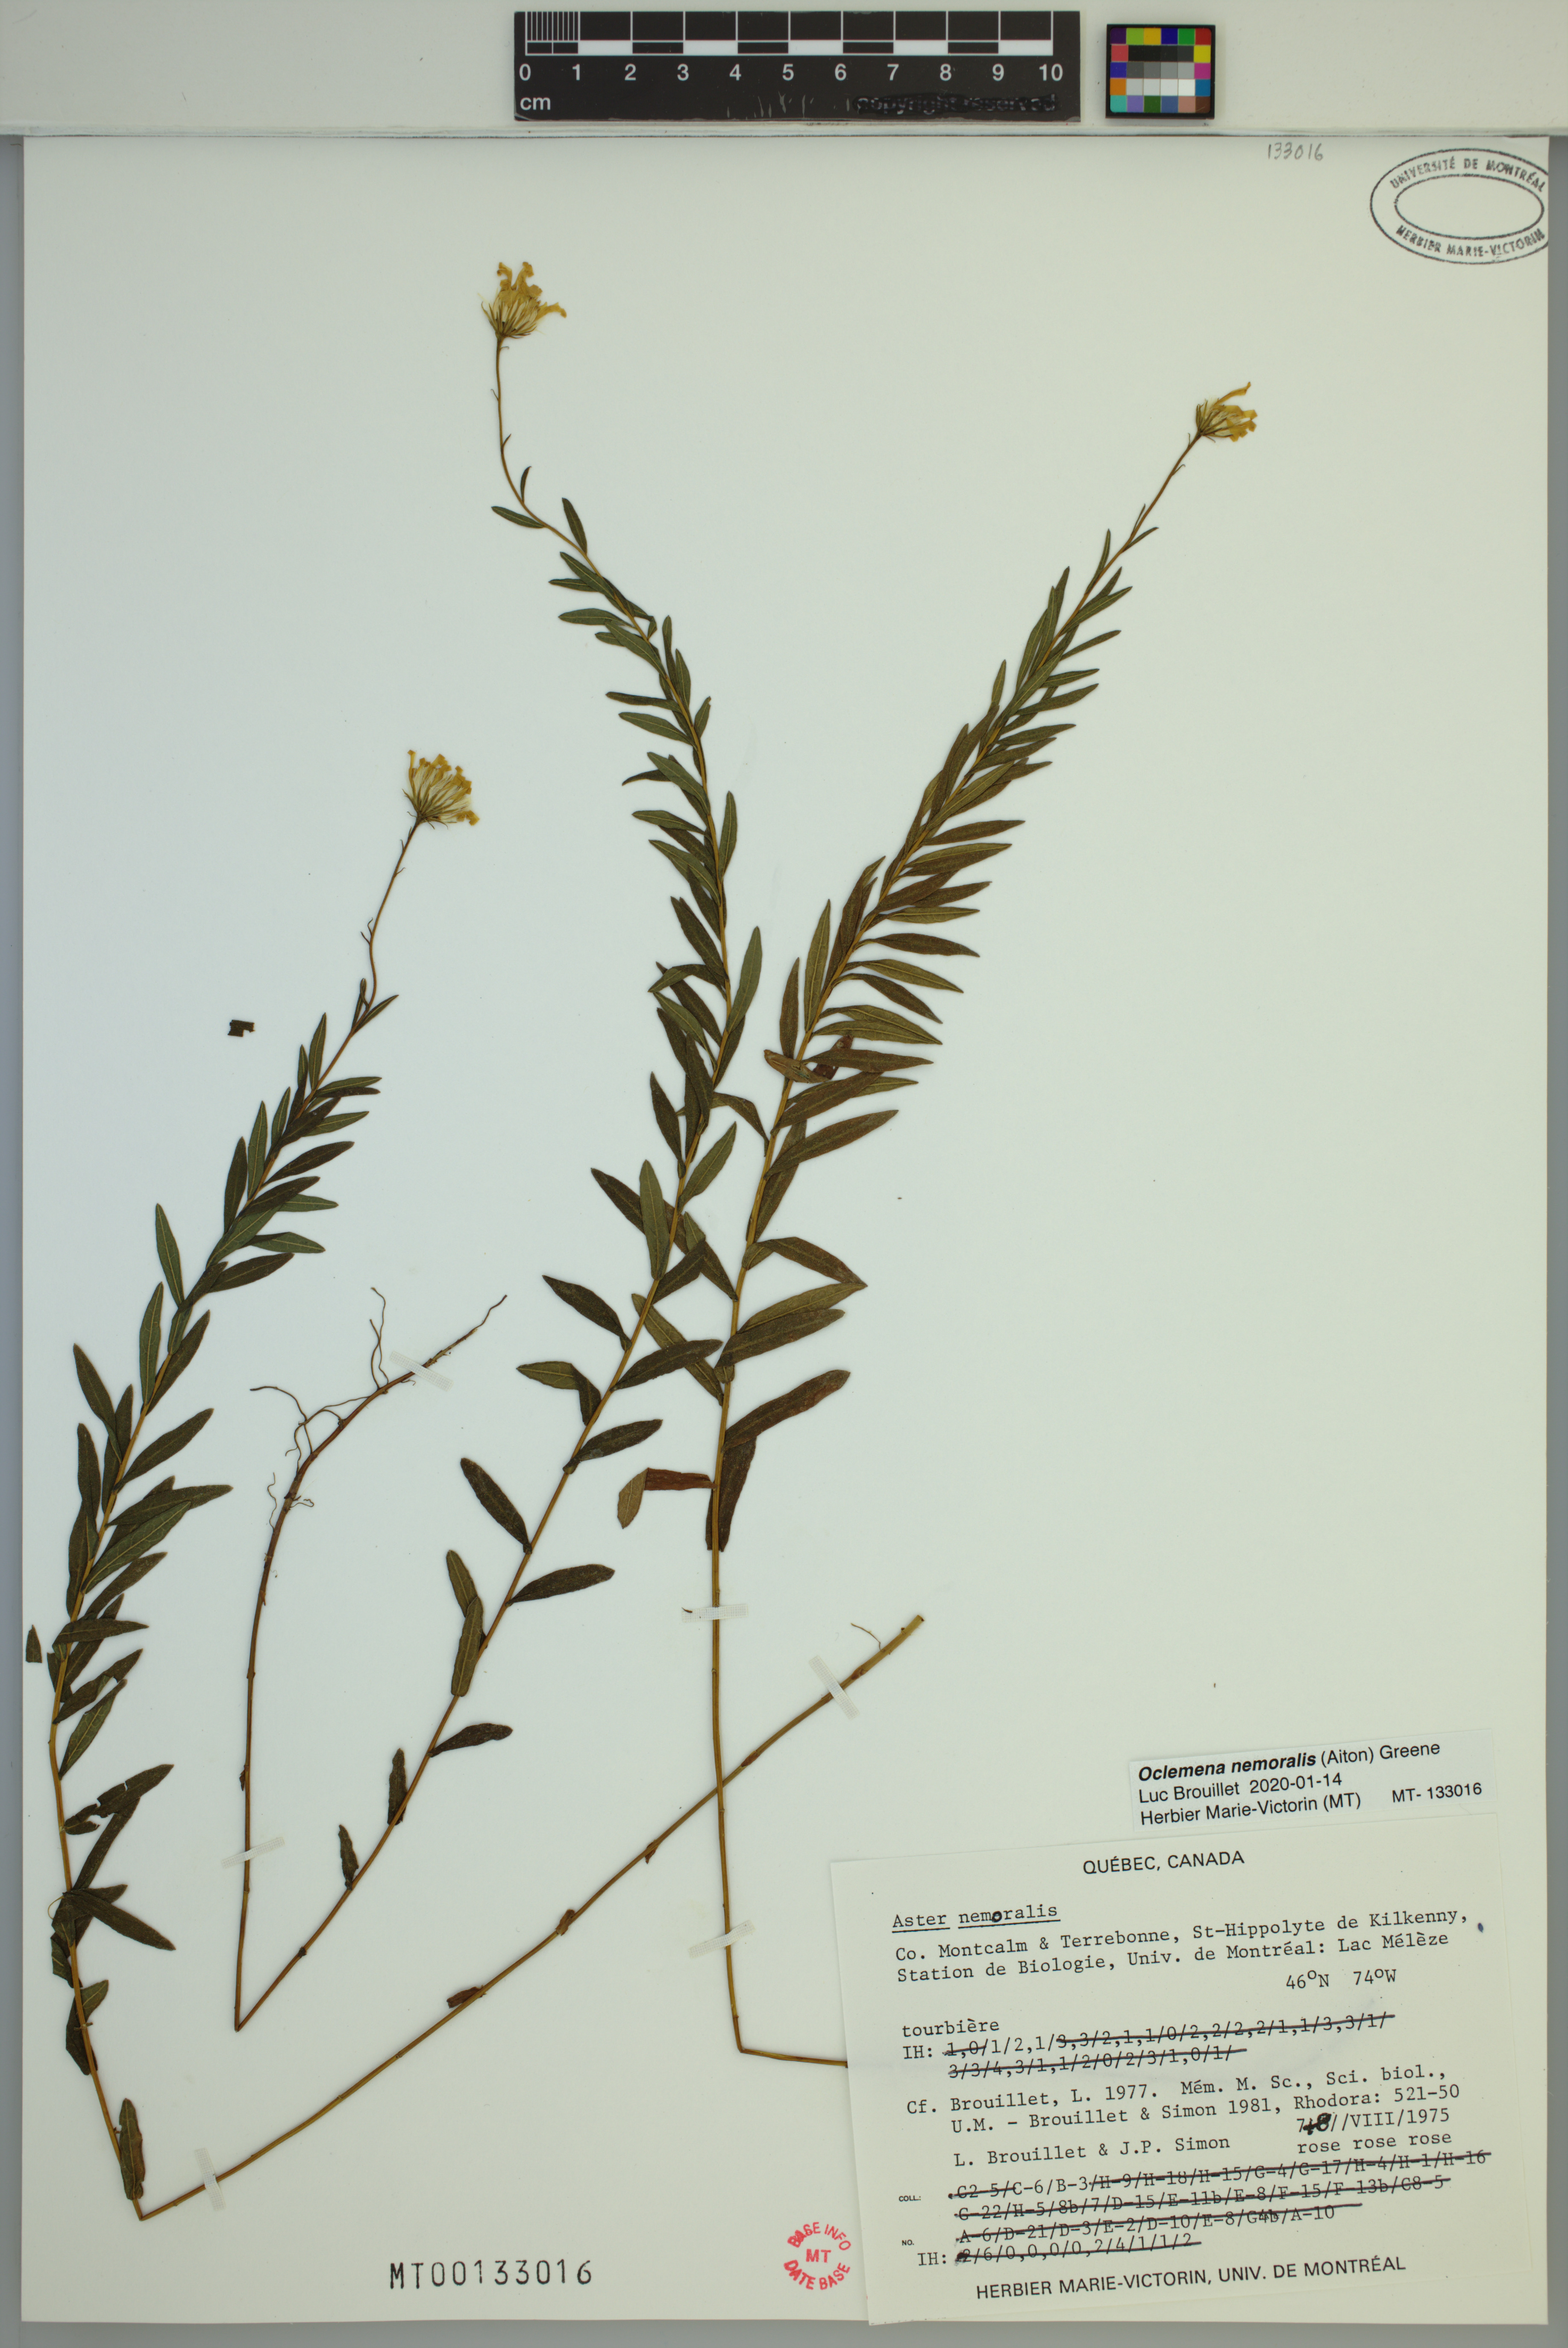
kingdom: Plantae
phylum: Tracheophyta
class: Magnoliopsida
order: Asterales
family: Asteraceae
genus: Oclemena
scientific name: Oclemena nemoralis
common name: Bog aster
